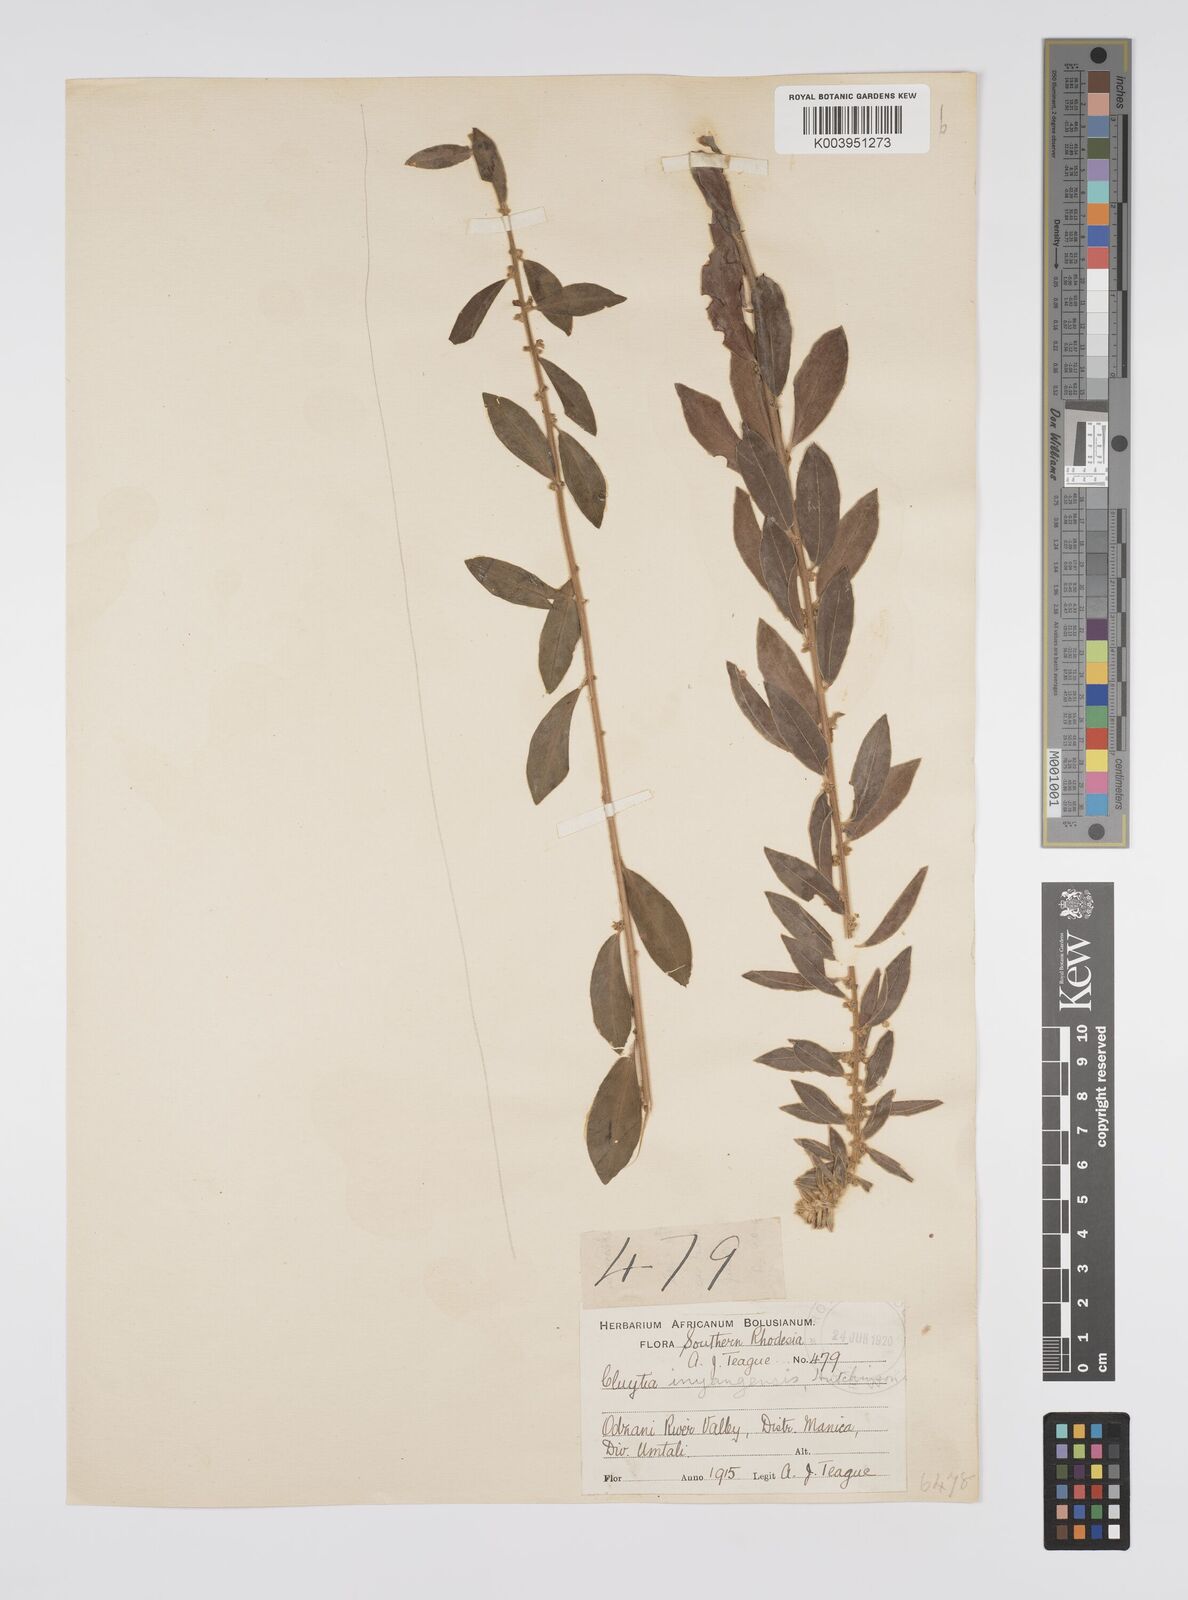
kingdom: Plantae
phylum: Tracheophyta
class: Magnoliopsida
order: Malpighiales
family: Peraceae
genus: Clutia
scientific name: Clutia
